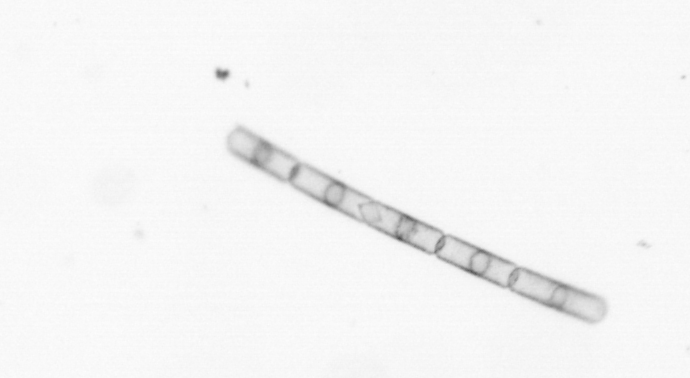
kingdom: Chromista
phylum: Ochrophyta
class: Bacillariophyceae
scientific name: Bacillariophyceae
